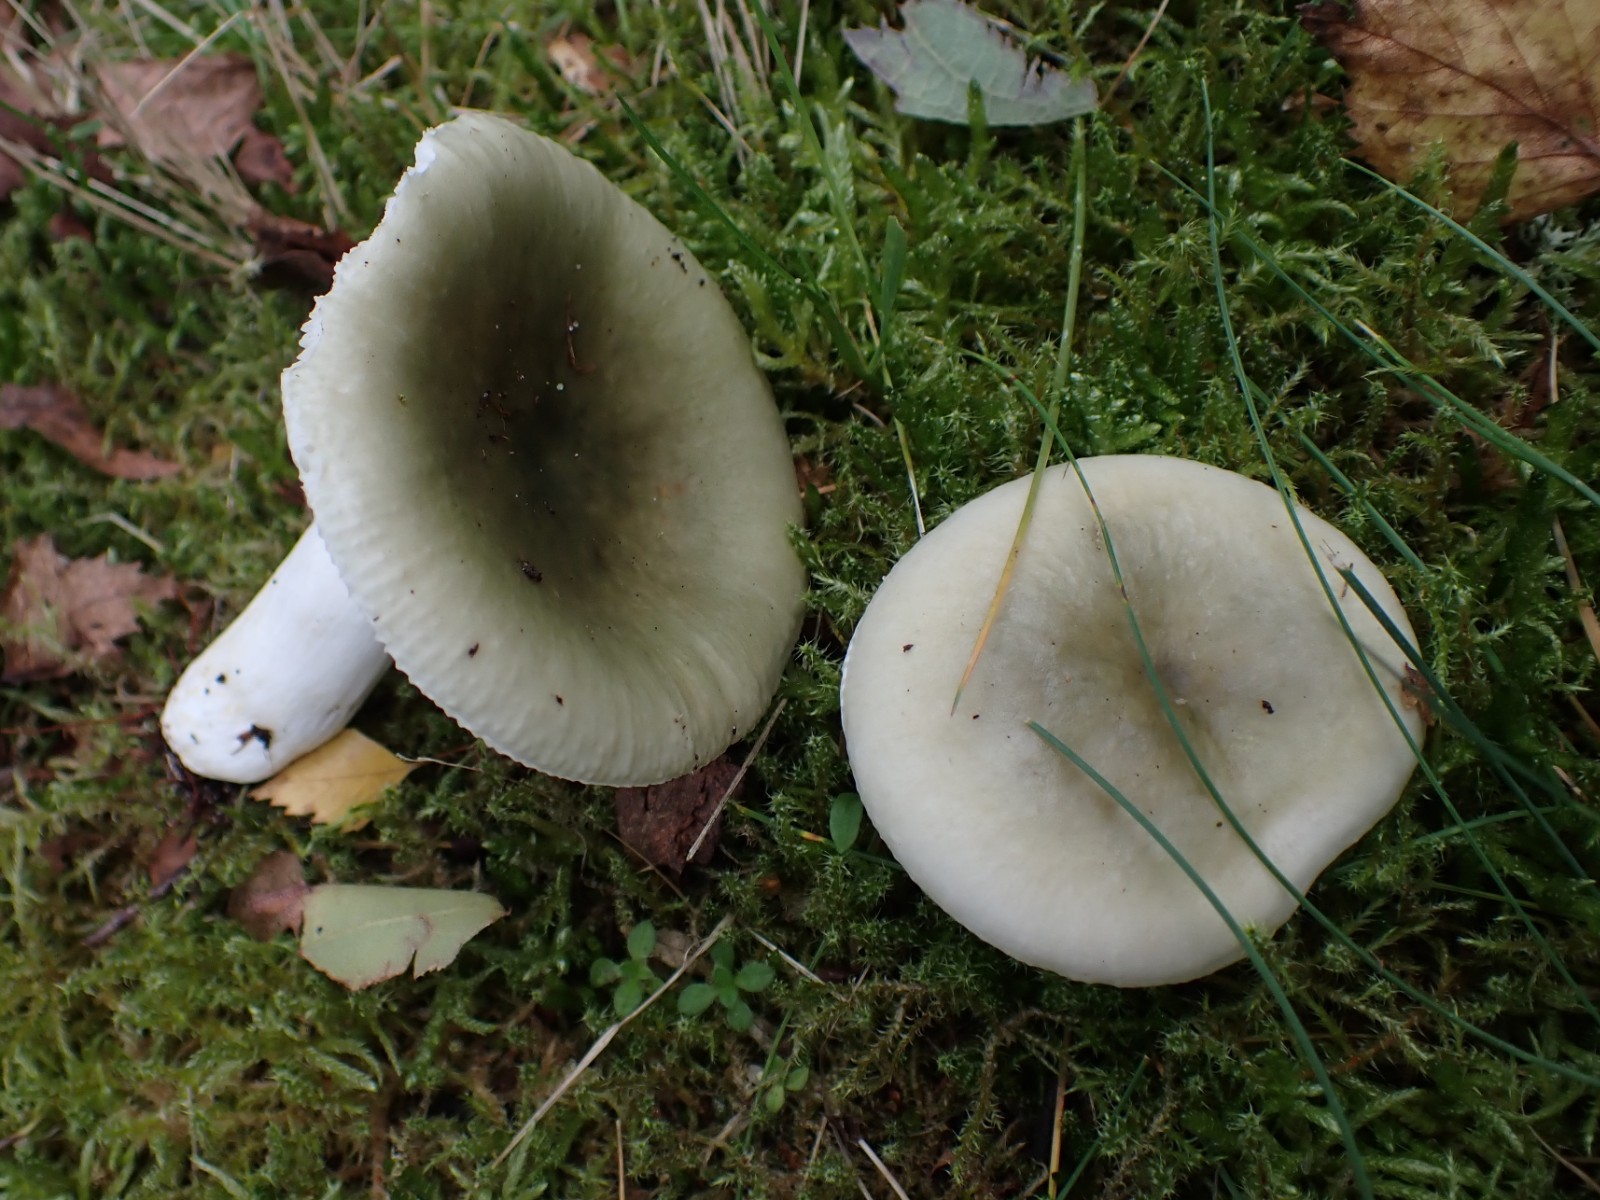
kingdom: Fungi
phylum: Basidiomycota
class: Agaricomycetes
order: Russulales
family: Russulaceae
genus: Russula
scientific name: Russula aeruginea
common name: græsgrøn skørhat
